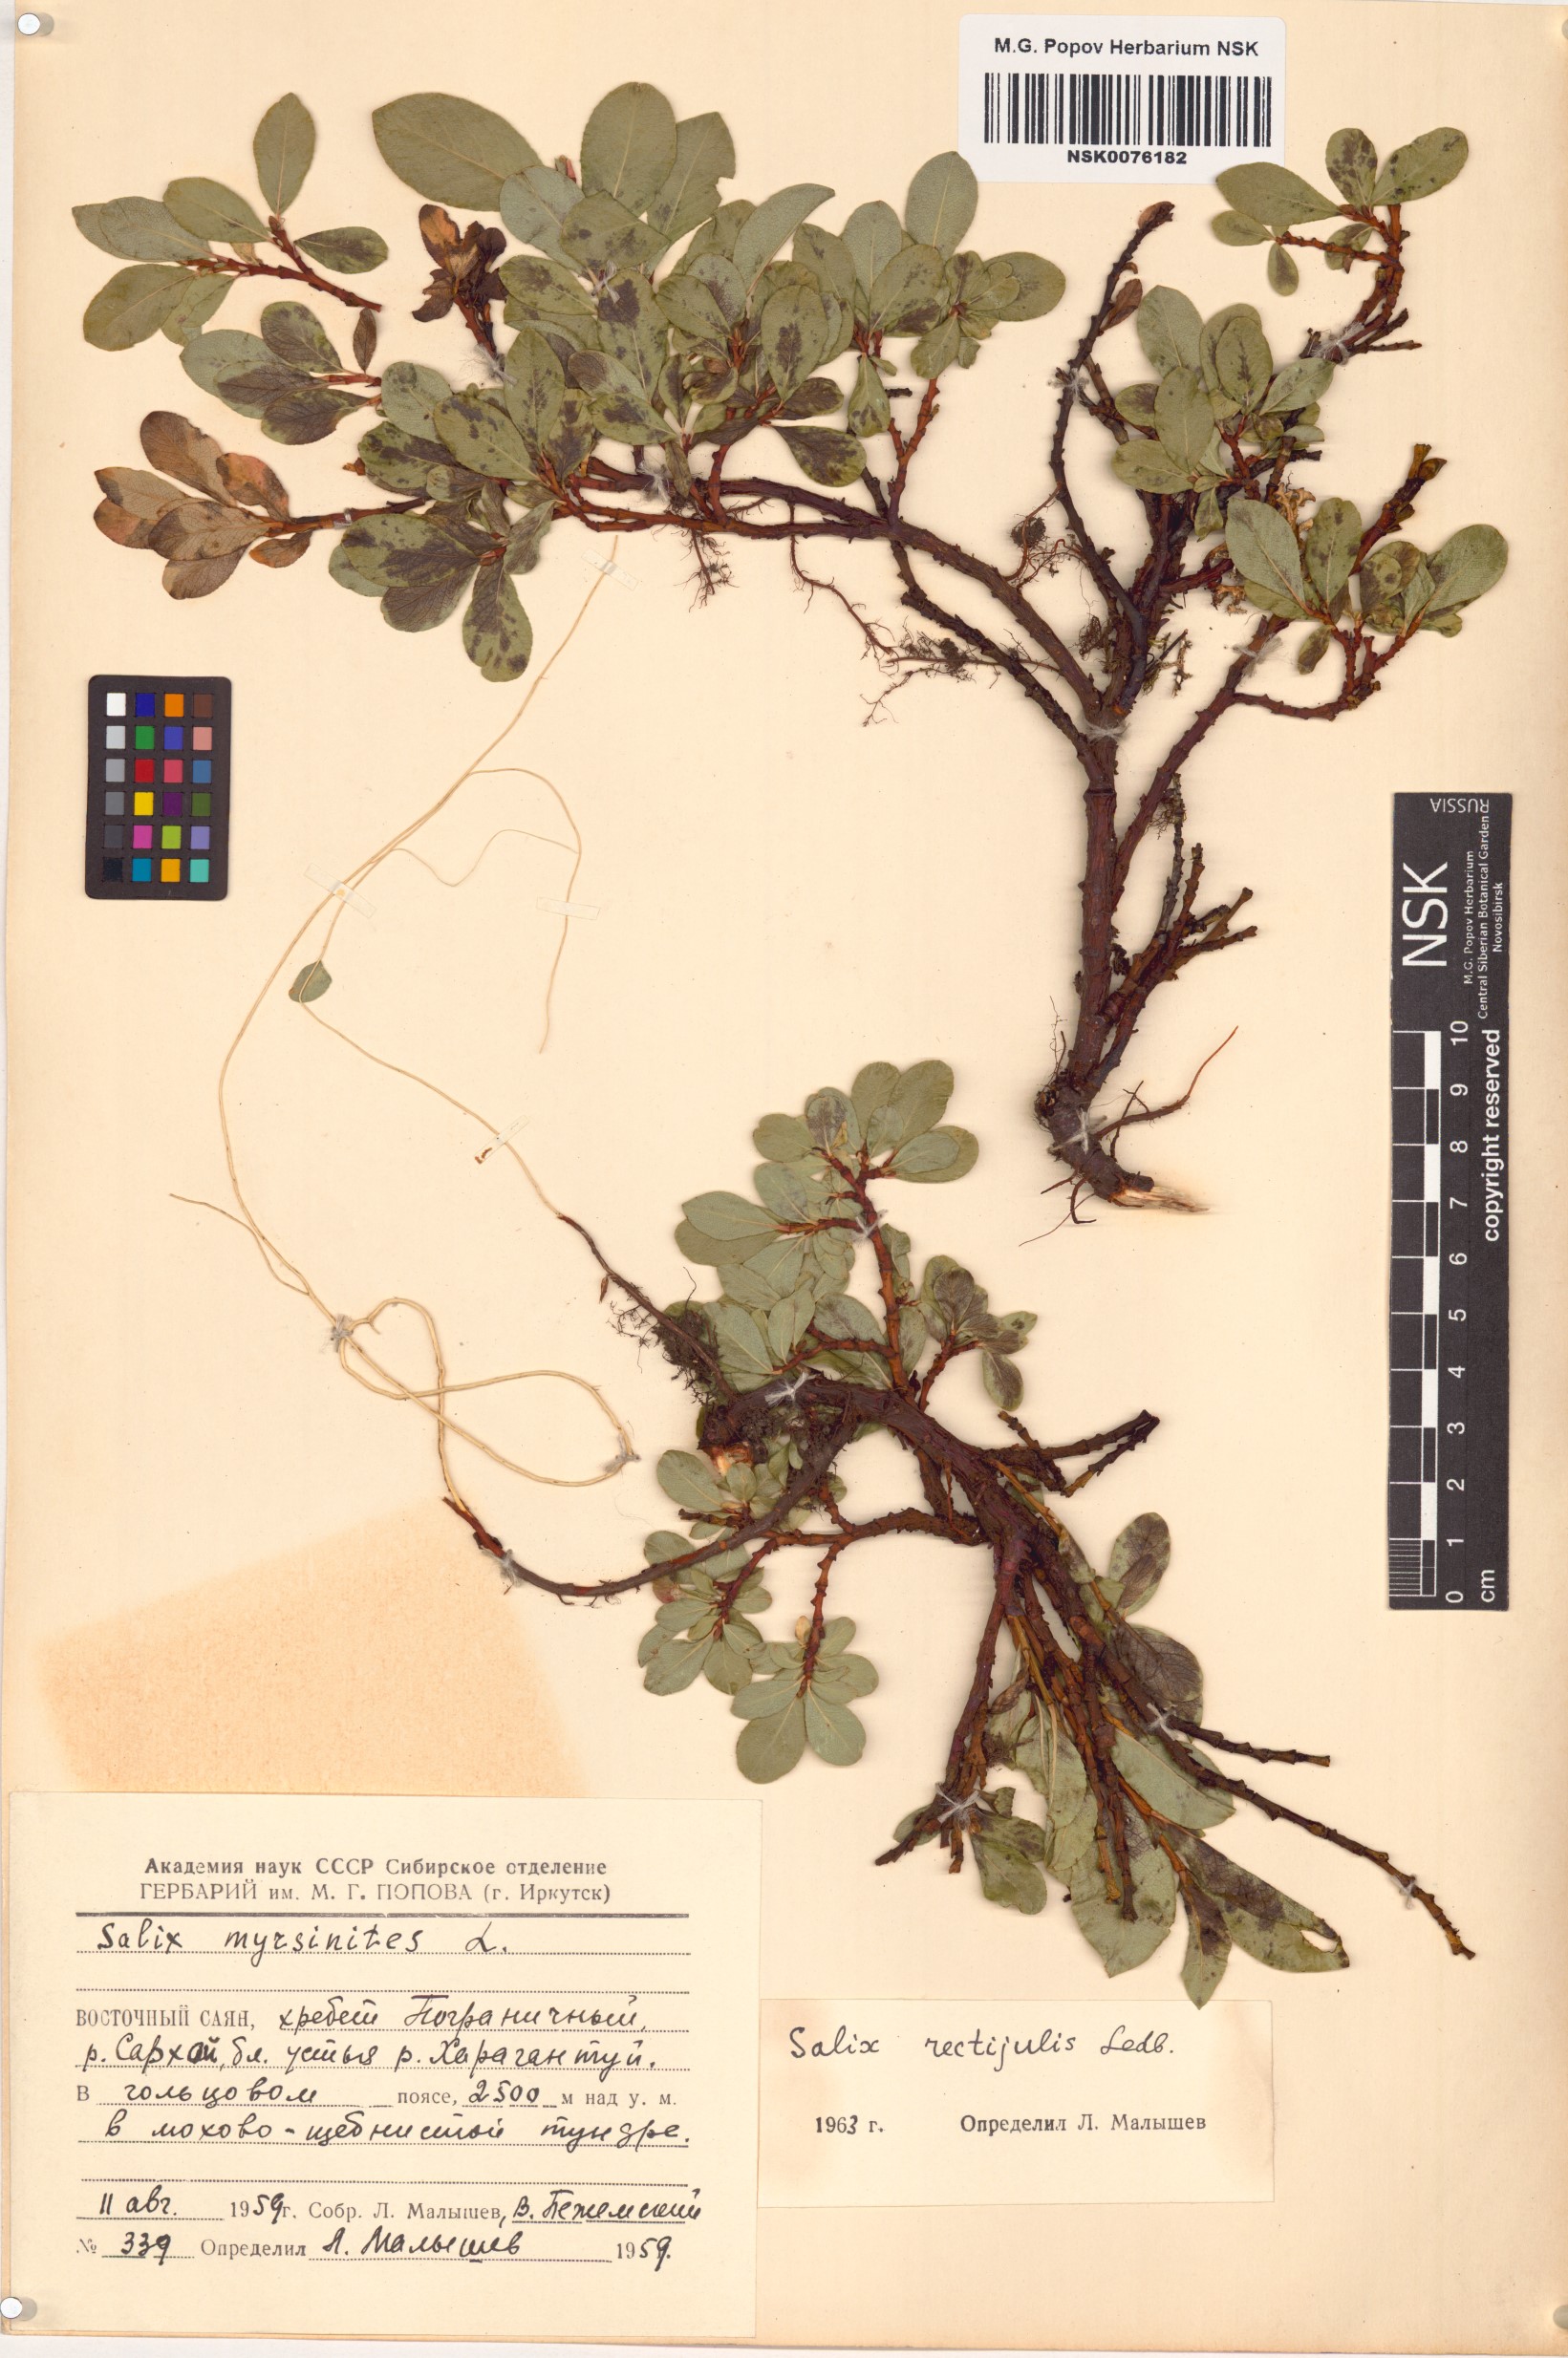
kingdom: Plantae
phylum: Tracheophyta
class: Magnoliopsida
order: Malpighiales
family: Salicaceae
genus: Salix
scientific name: Salix rectijulis
